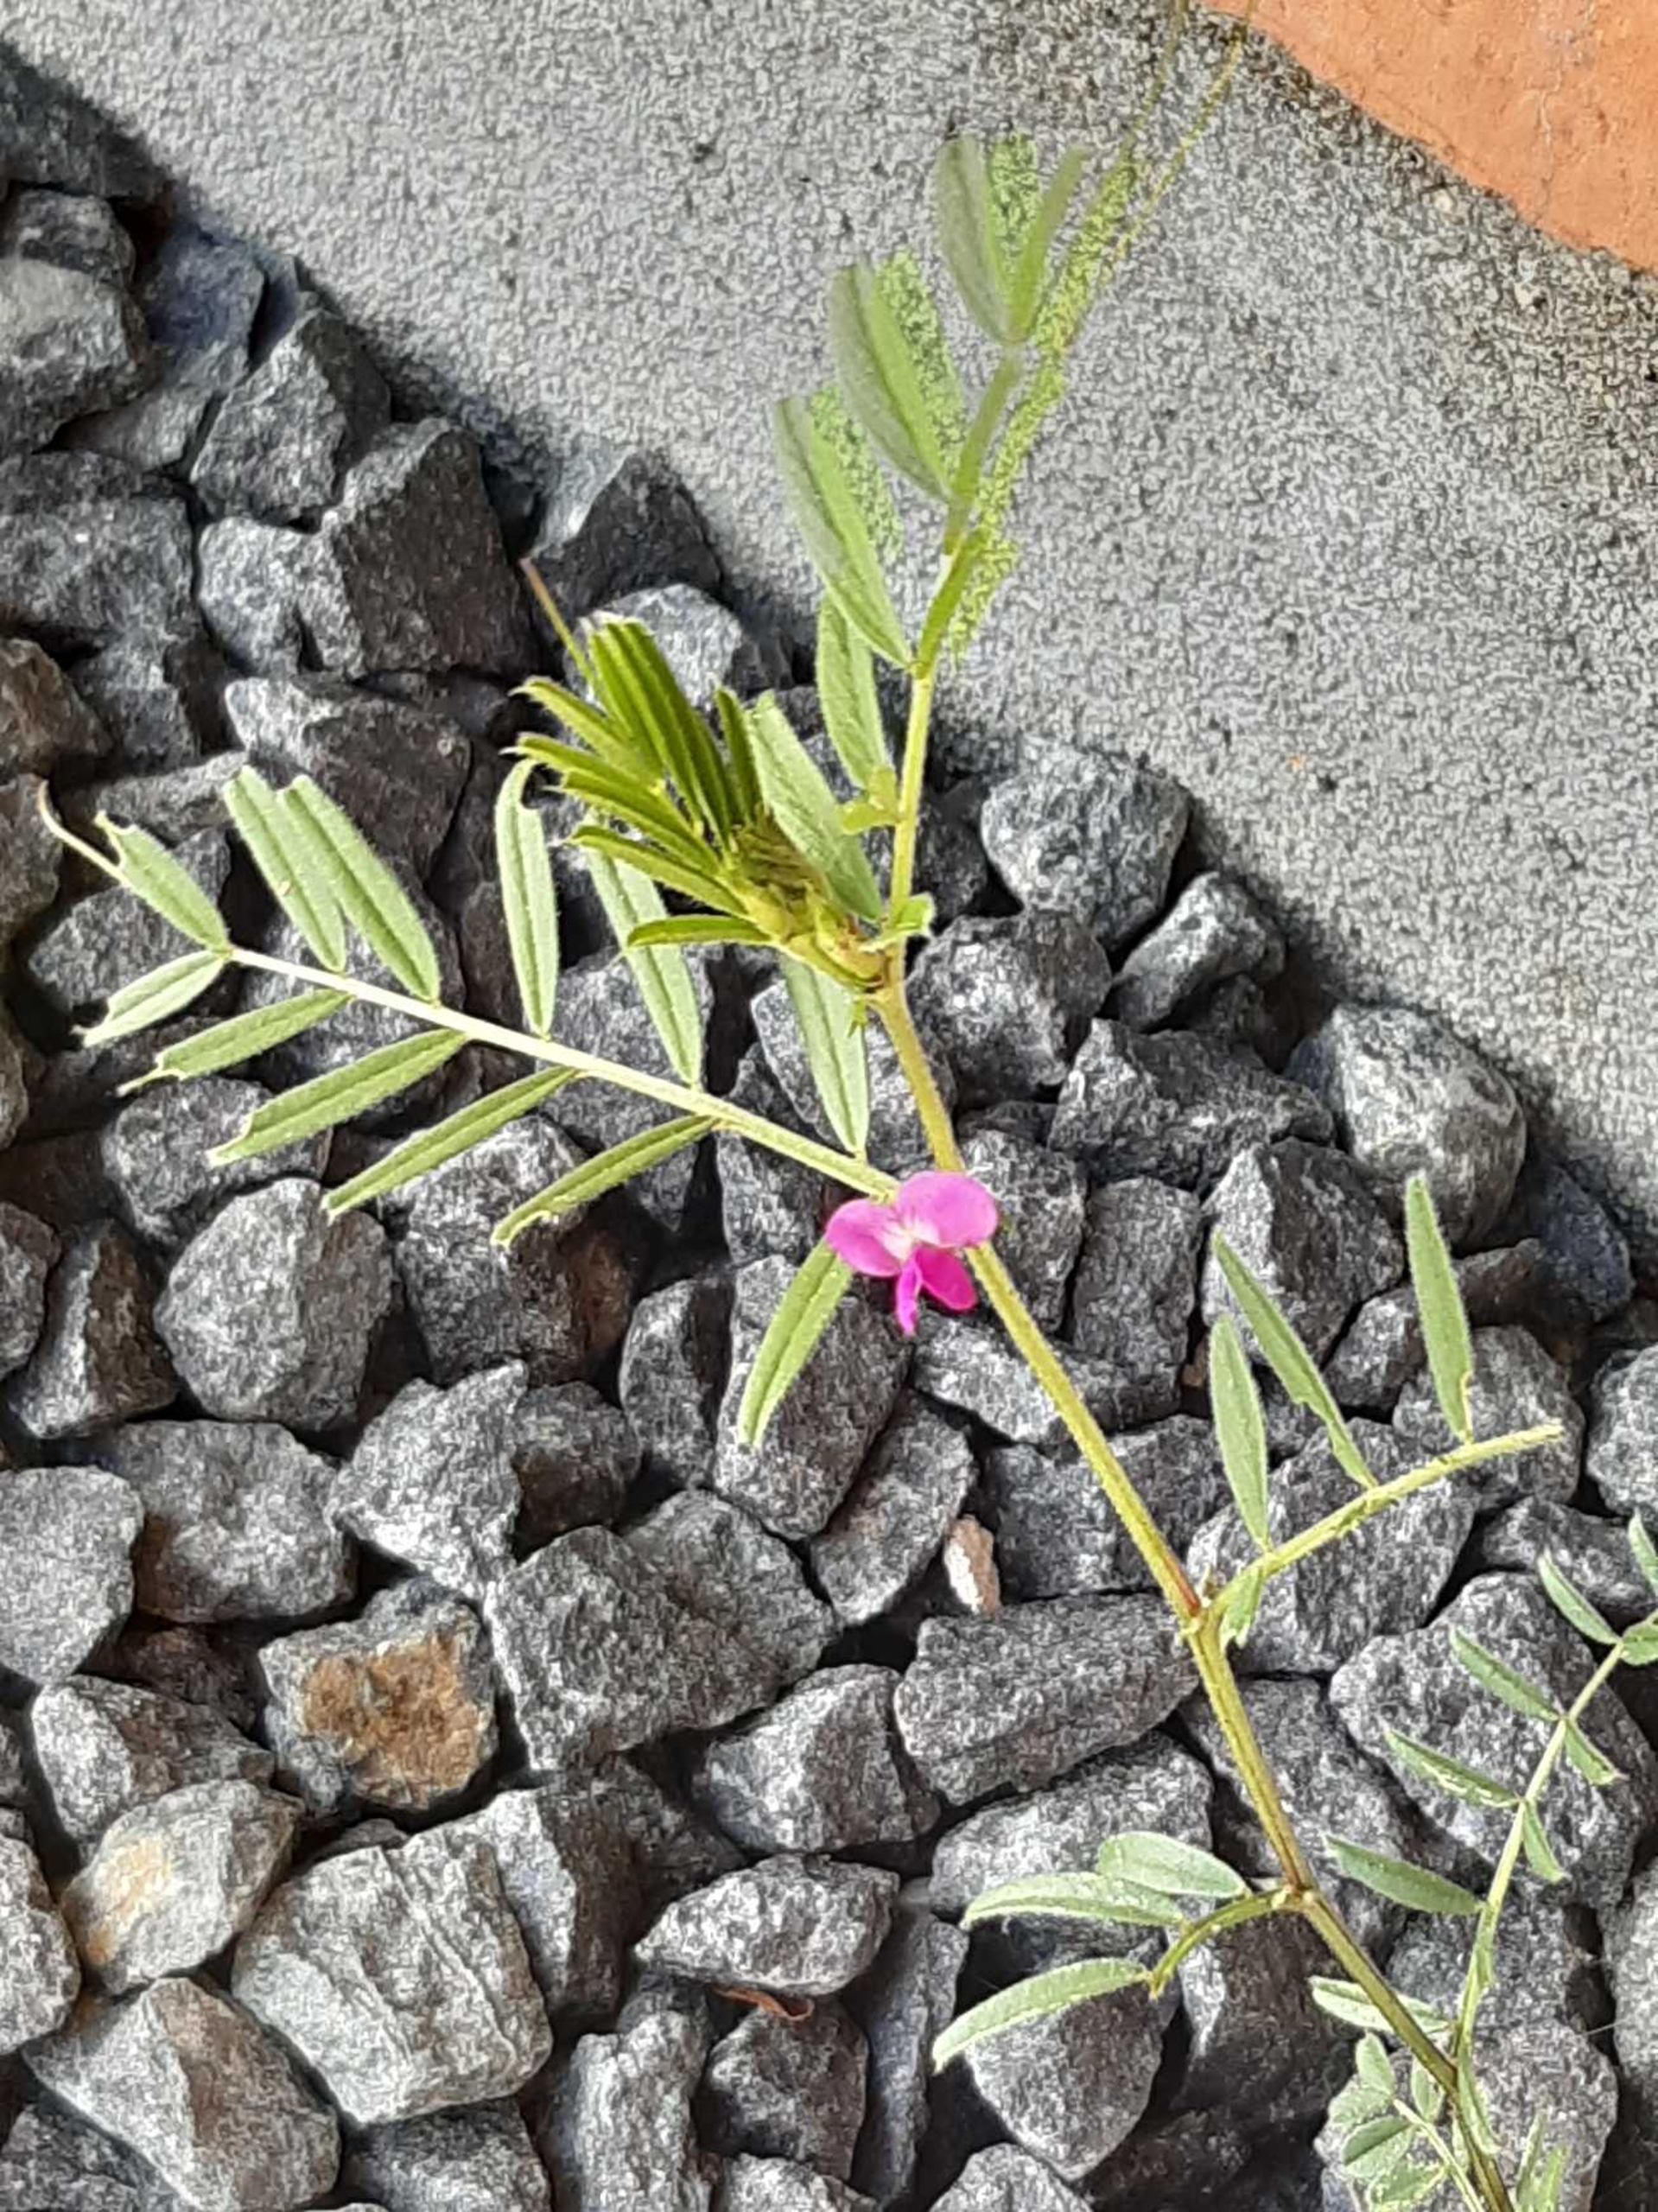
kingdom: Plantae
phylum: Tracheophyta
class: Magnoliopsida
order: Fabales
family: Fabaceae
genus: Vicia
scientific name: Vicia sativa
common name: Foder-vikke
